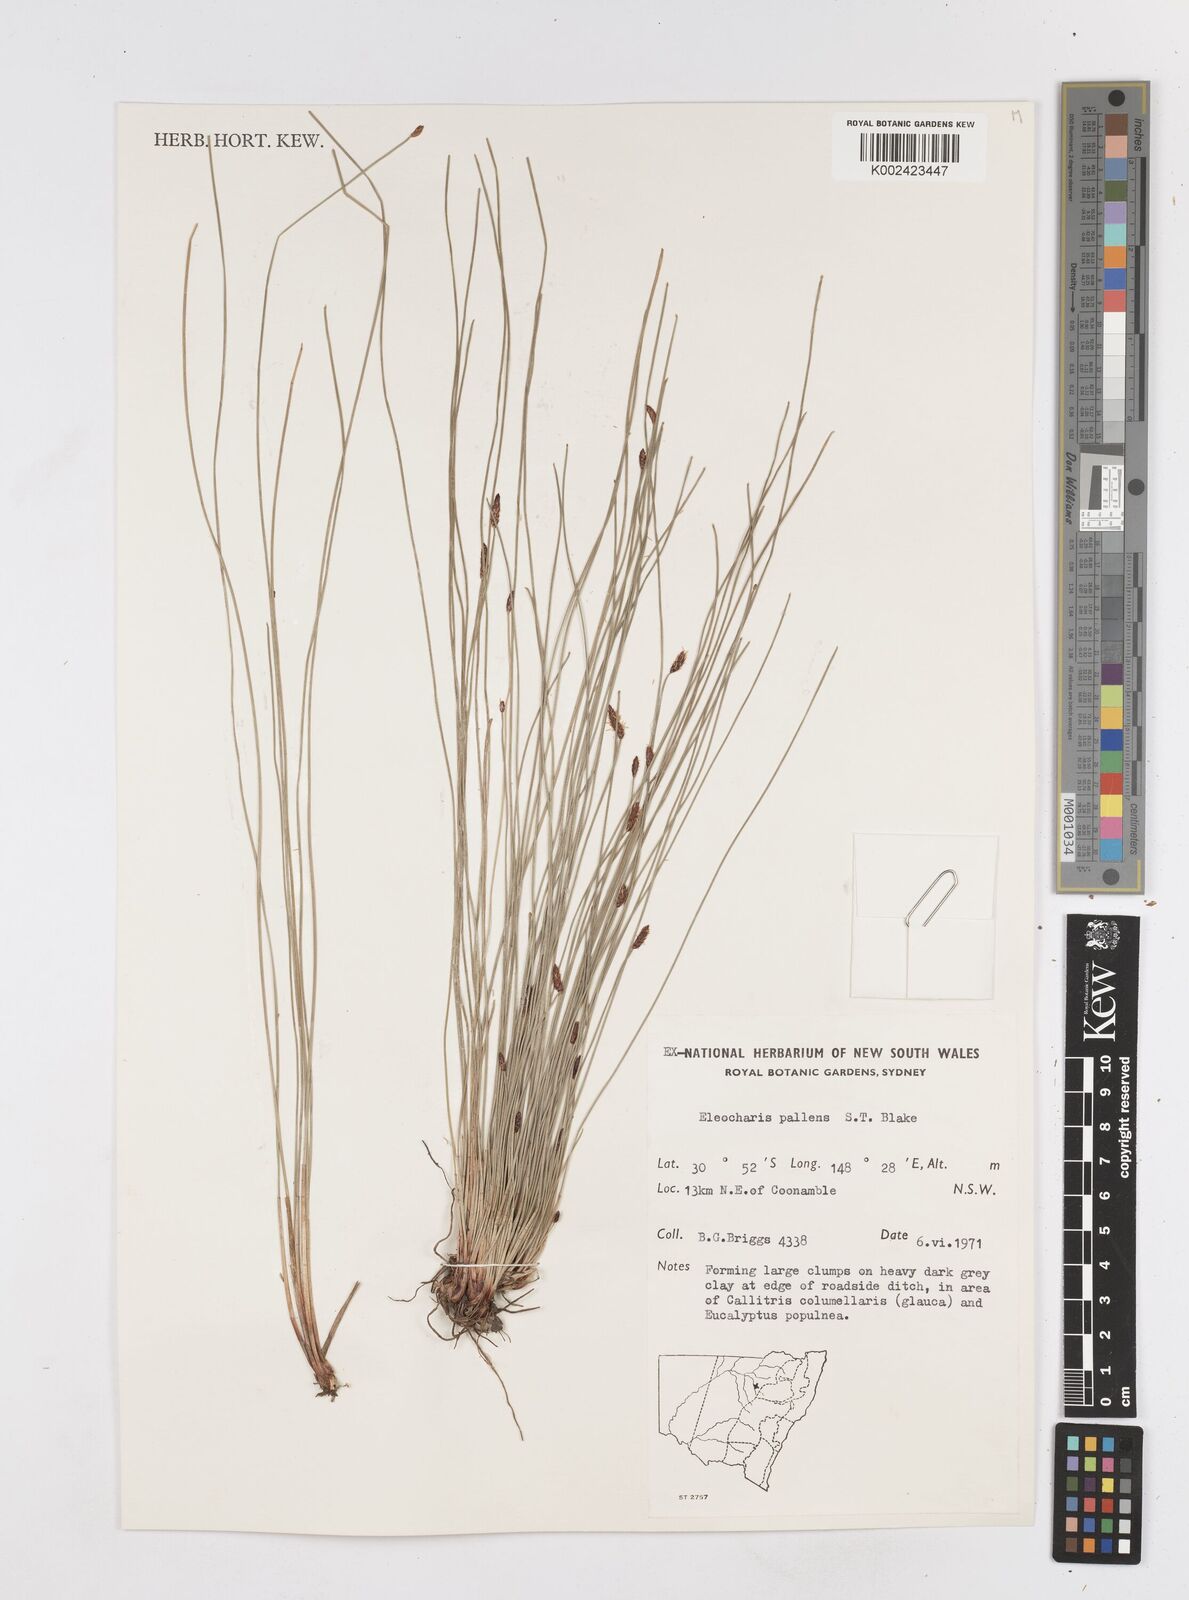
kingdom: Plantae
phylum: Tracheophyta
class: Liliopsida
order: Poales
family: Cyperaceae
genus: Eleocharis
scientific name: Eleocharis acuta
